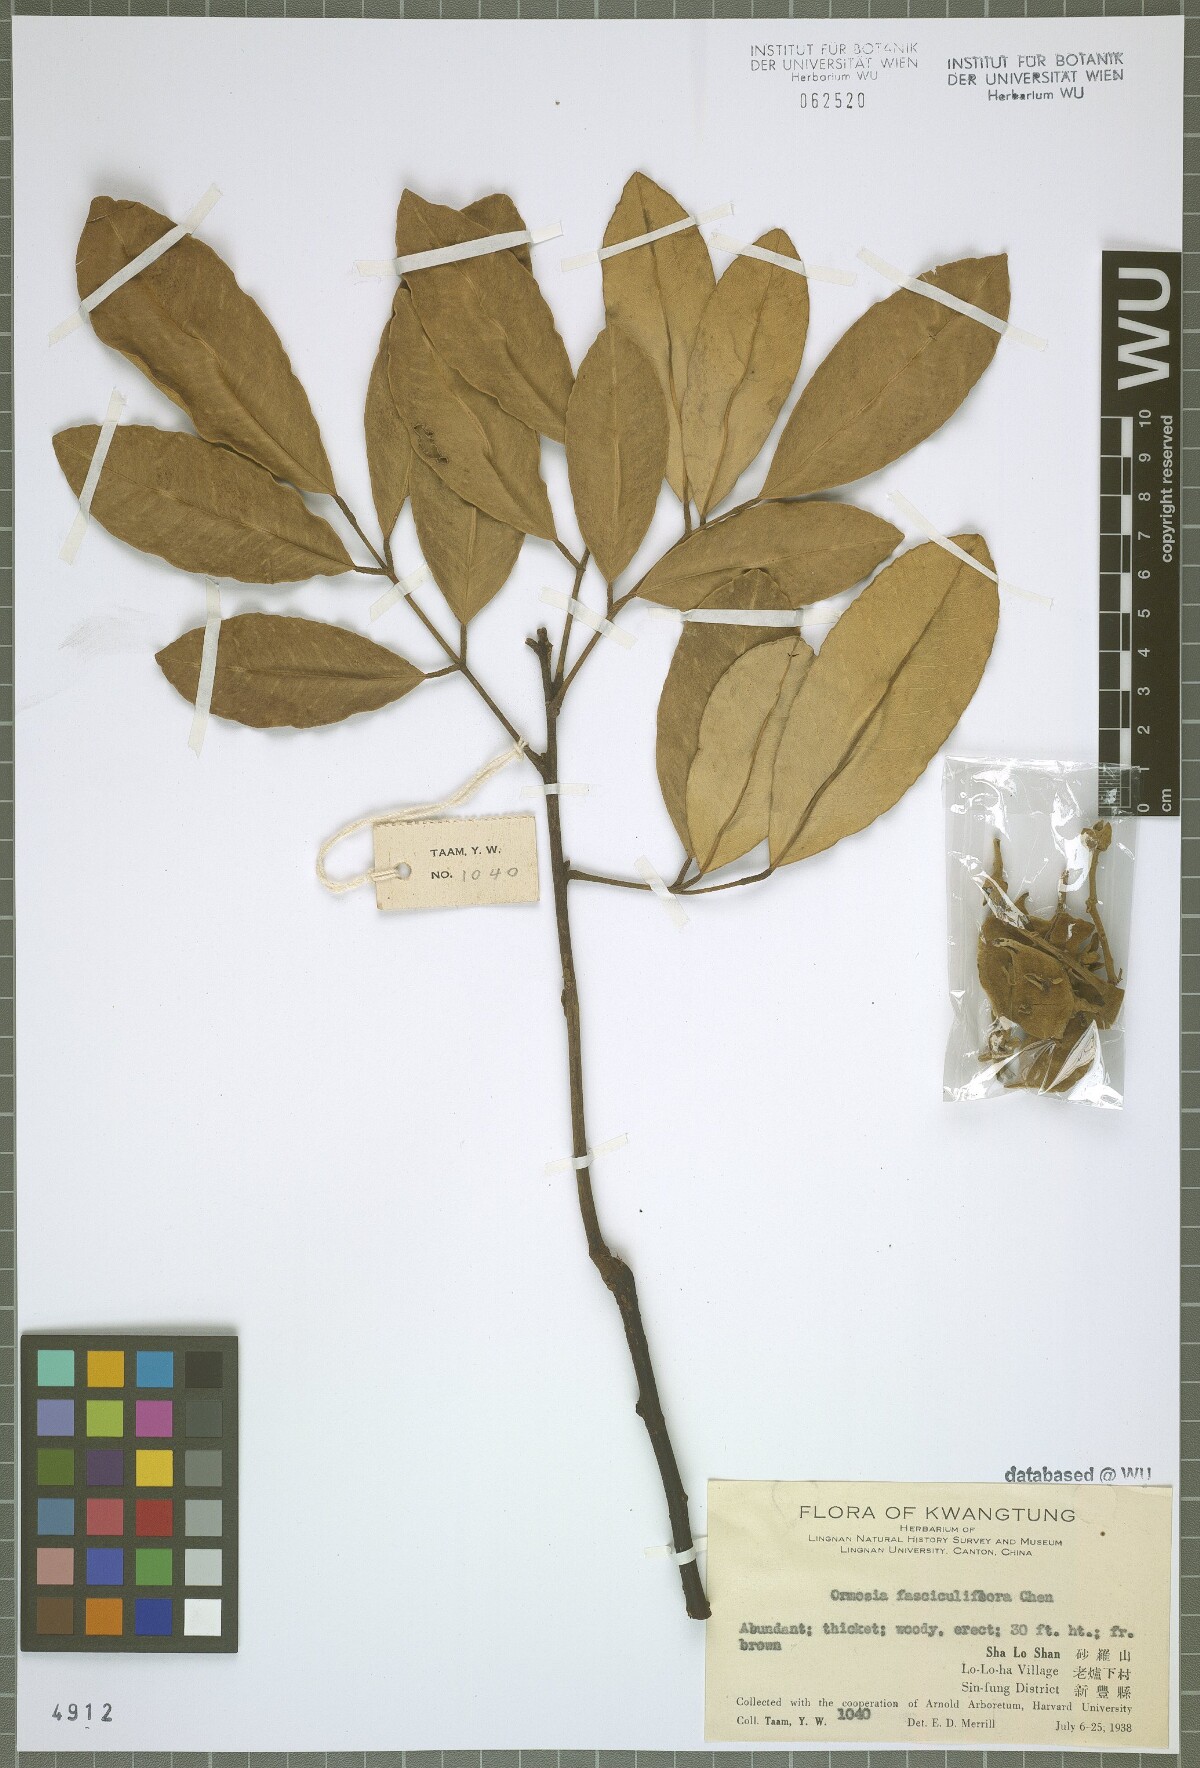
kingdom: Plantae
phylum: Tracheophyta
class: Magnoliopsida
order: Fabales
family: Fabaceae
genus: Ormosia
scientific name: Ormosia
